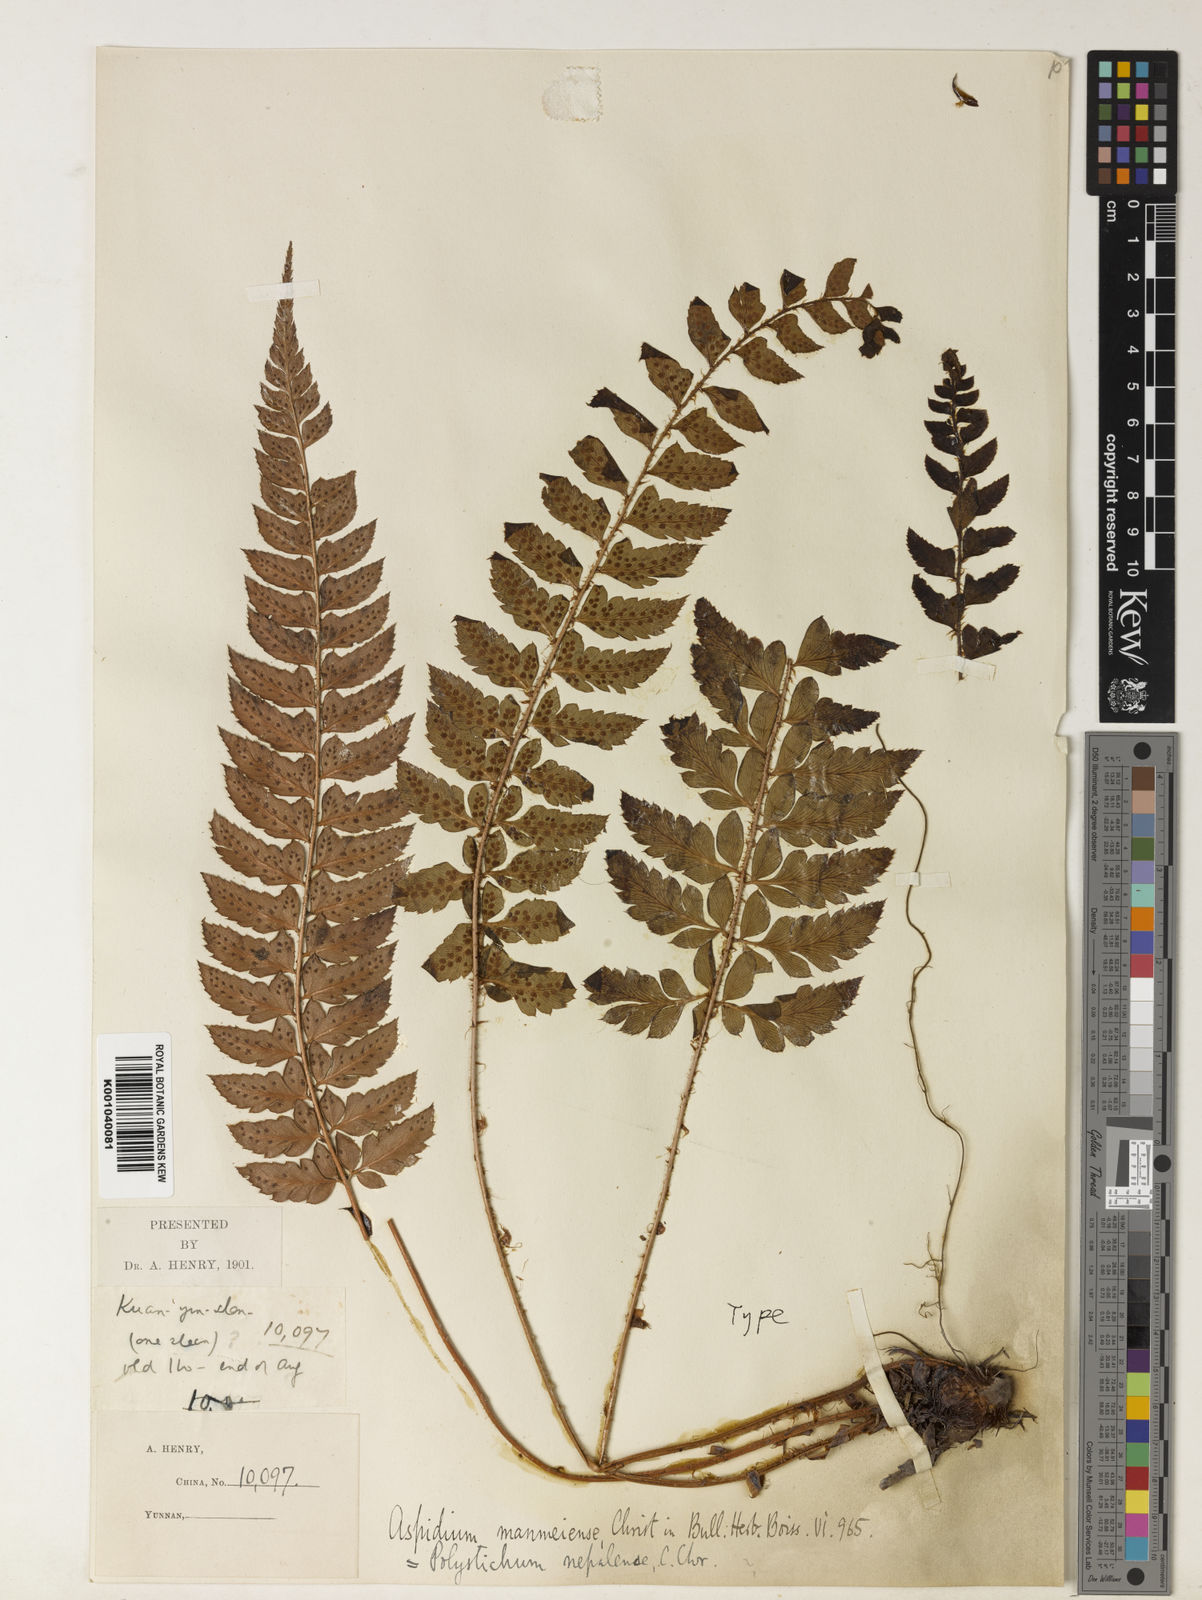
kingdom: Plantae
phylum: Tracheophyta
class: Polypodiopsida
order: Polypodiales
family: Dryopteridaceae
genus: Polystichum
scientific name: Polystichum nepalense
